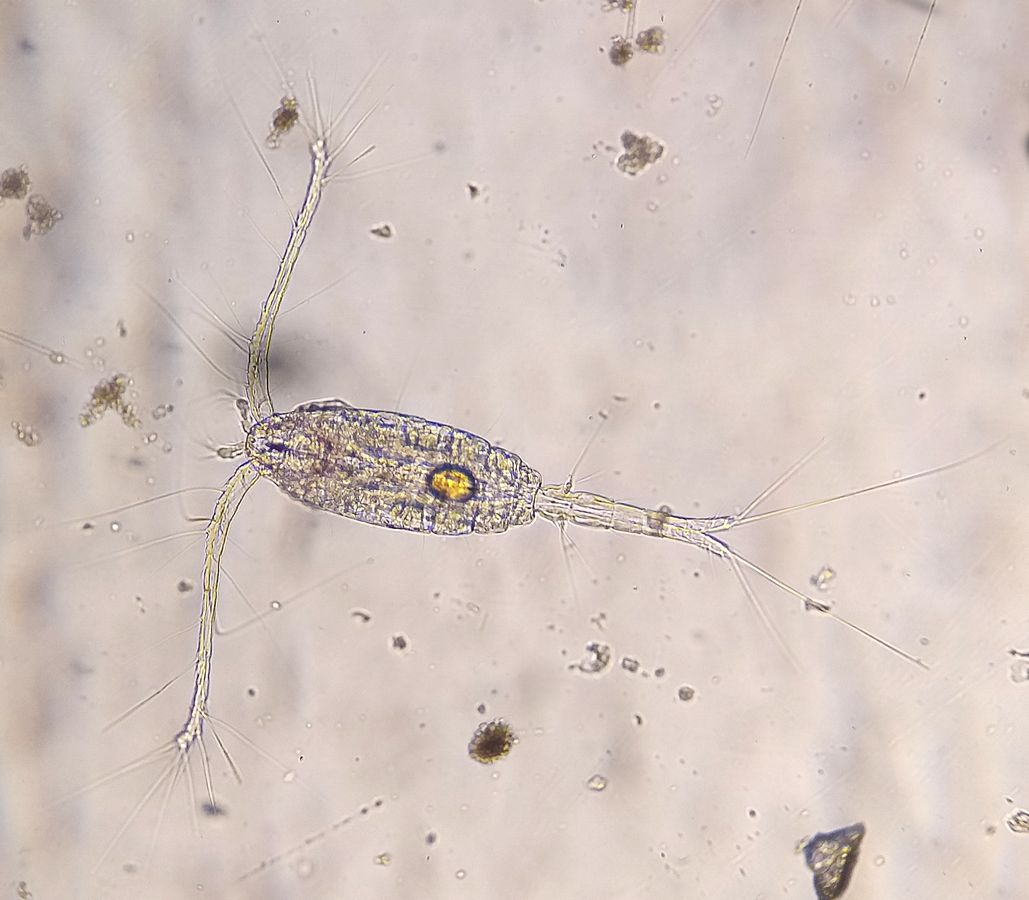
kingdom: Animalia
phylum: Arthropoda
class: Copepoda
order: Cyclopoida
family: Oithonidae
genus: Oithona
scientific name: Oithona similis
